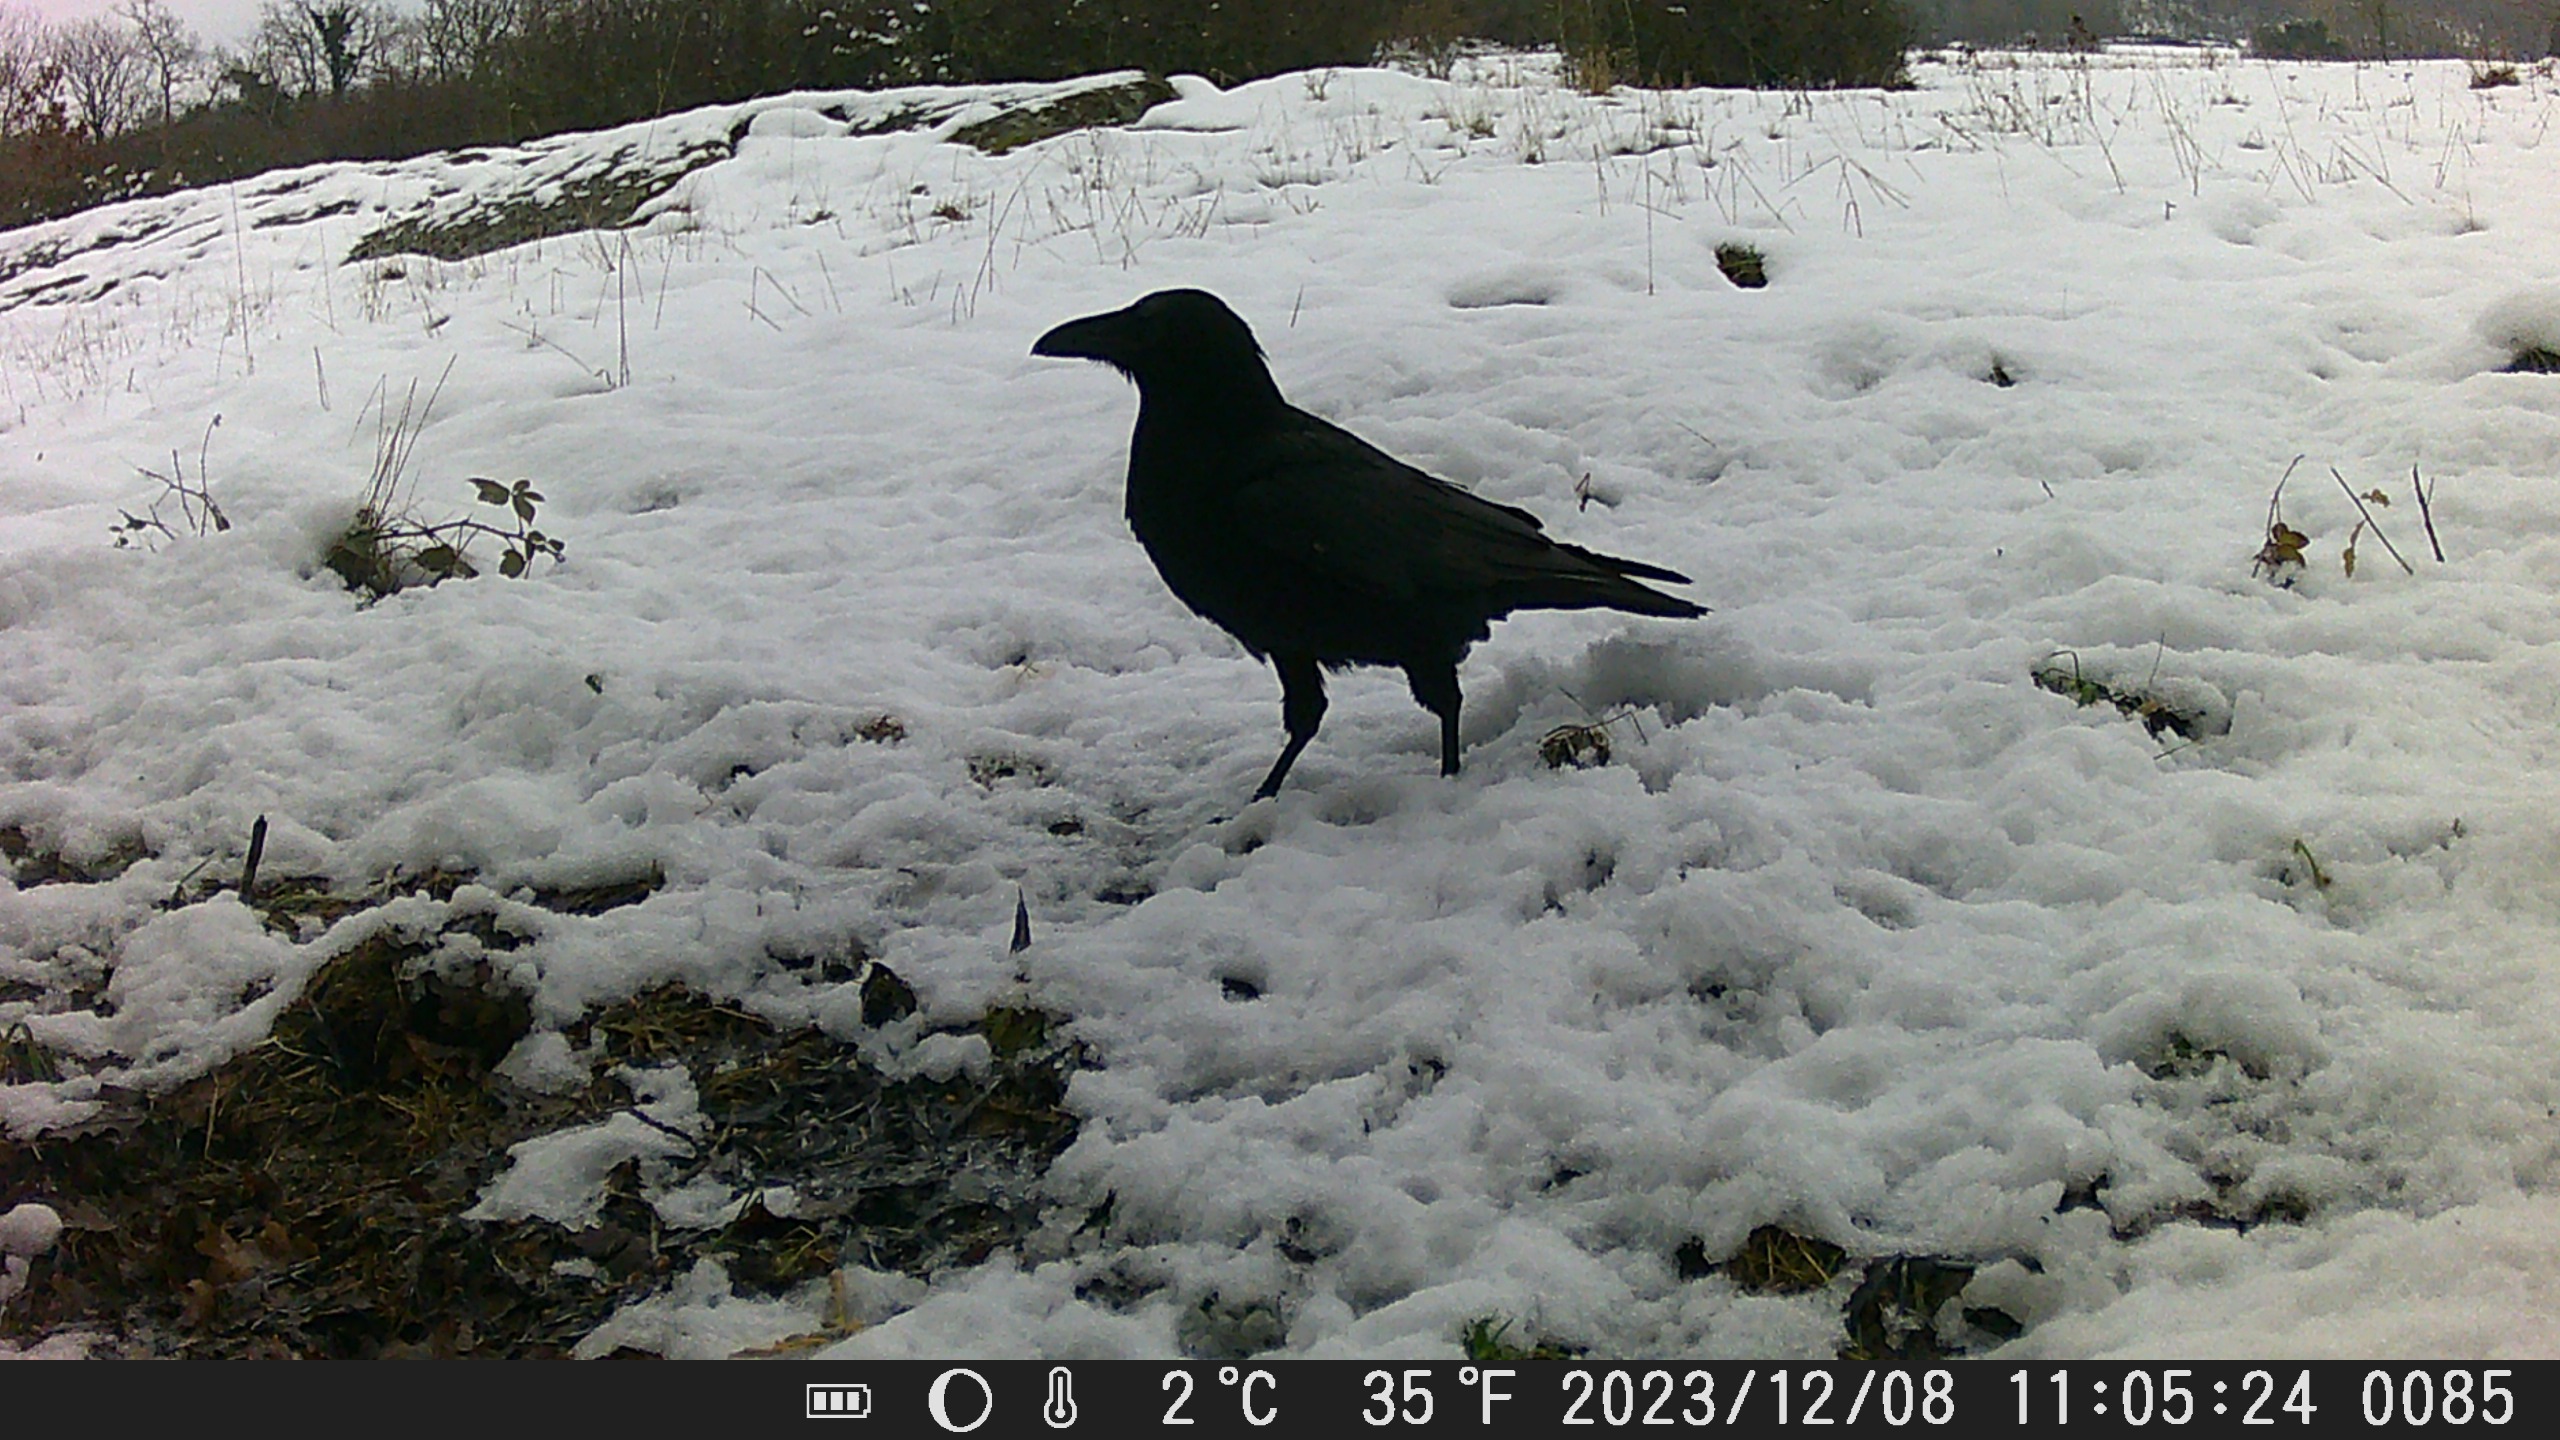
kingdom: Animalia
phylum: Chordata
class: Aves
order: Passeriformes
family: Corvidae
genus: Corvus
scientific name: Corvus corax
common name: Ravn
